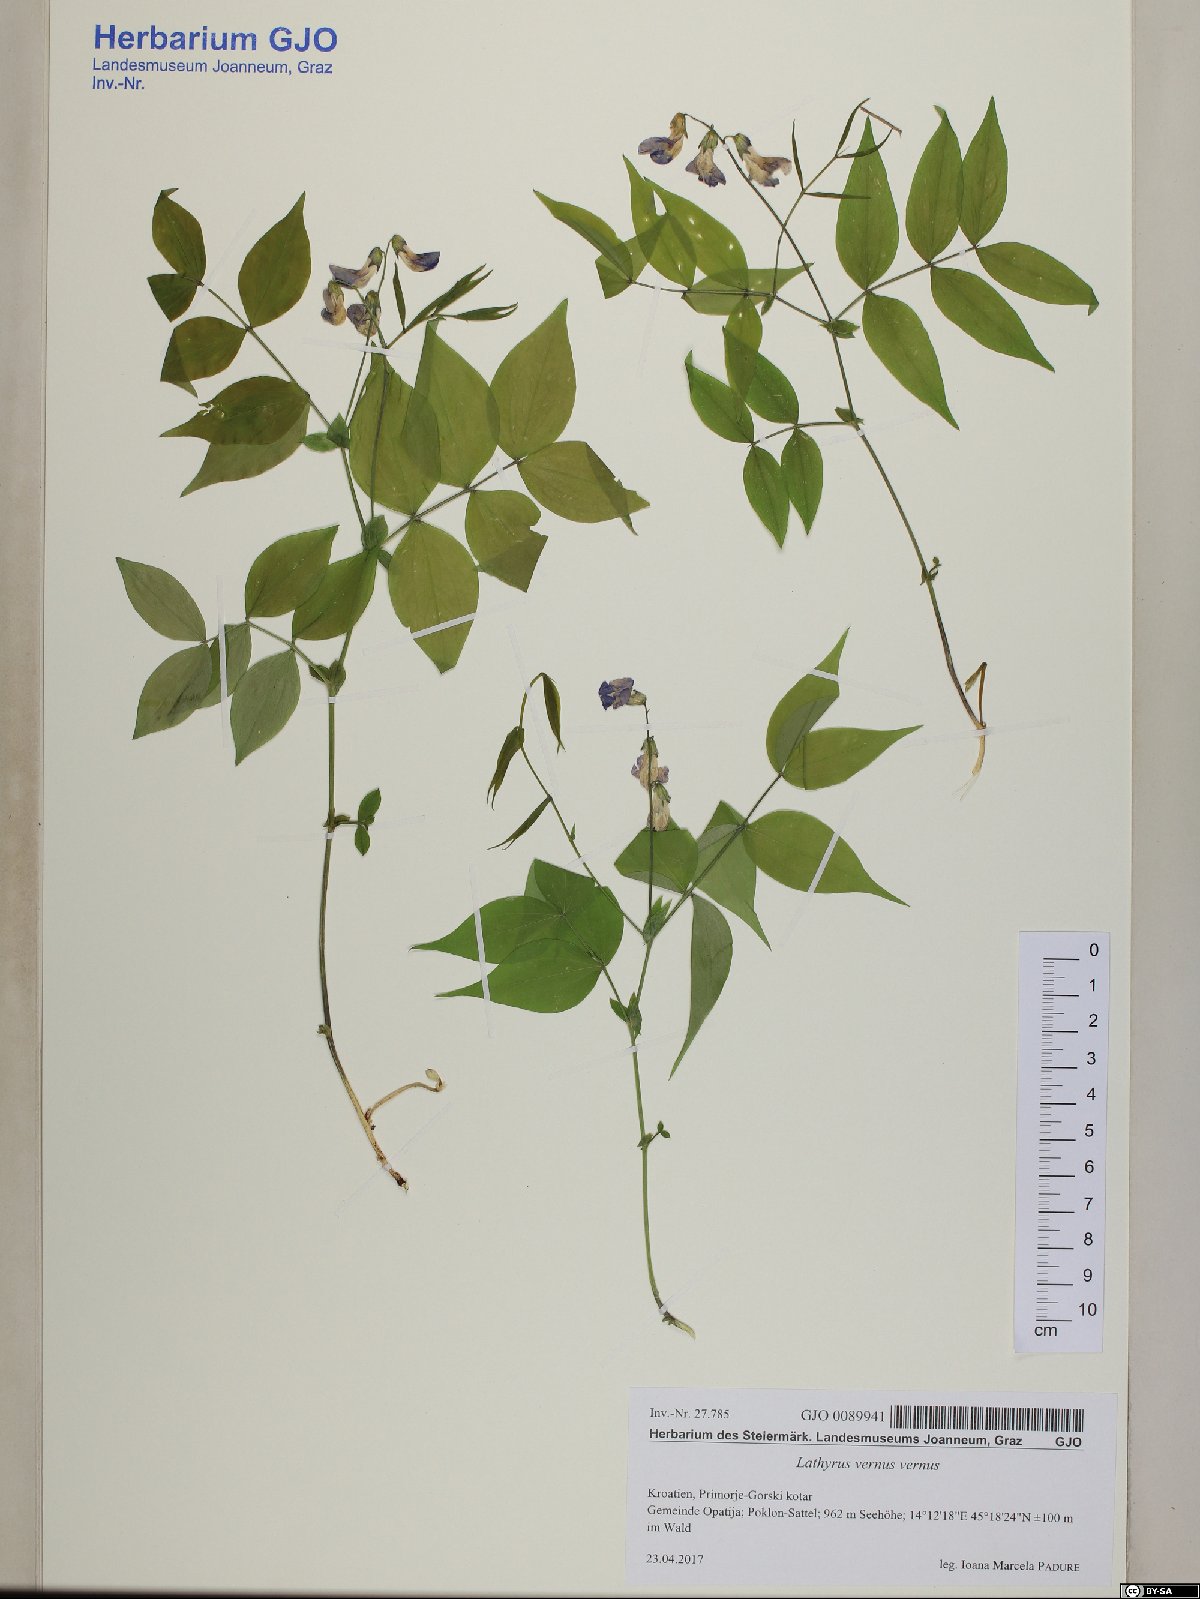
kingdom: Plantae
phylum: Tracheophyta
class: Magnoliopsida
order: Fabales
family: Fabaceae
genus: Lathyrus
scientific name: Lathyrus vernus
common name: Spring pea
